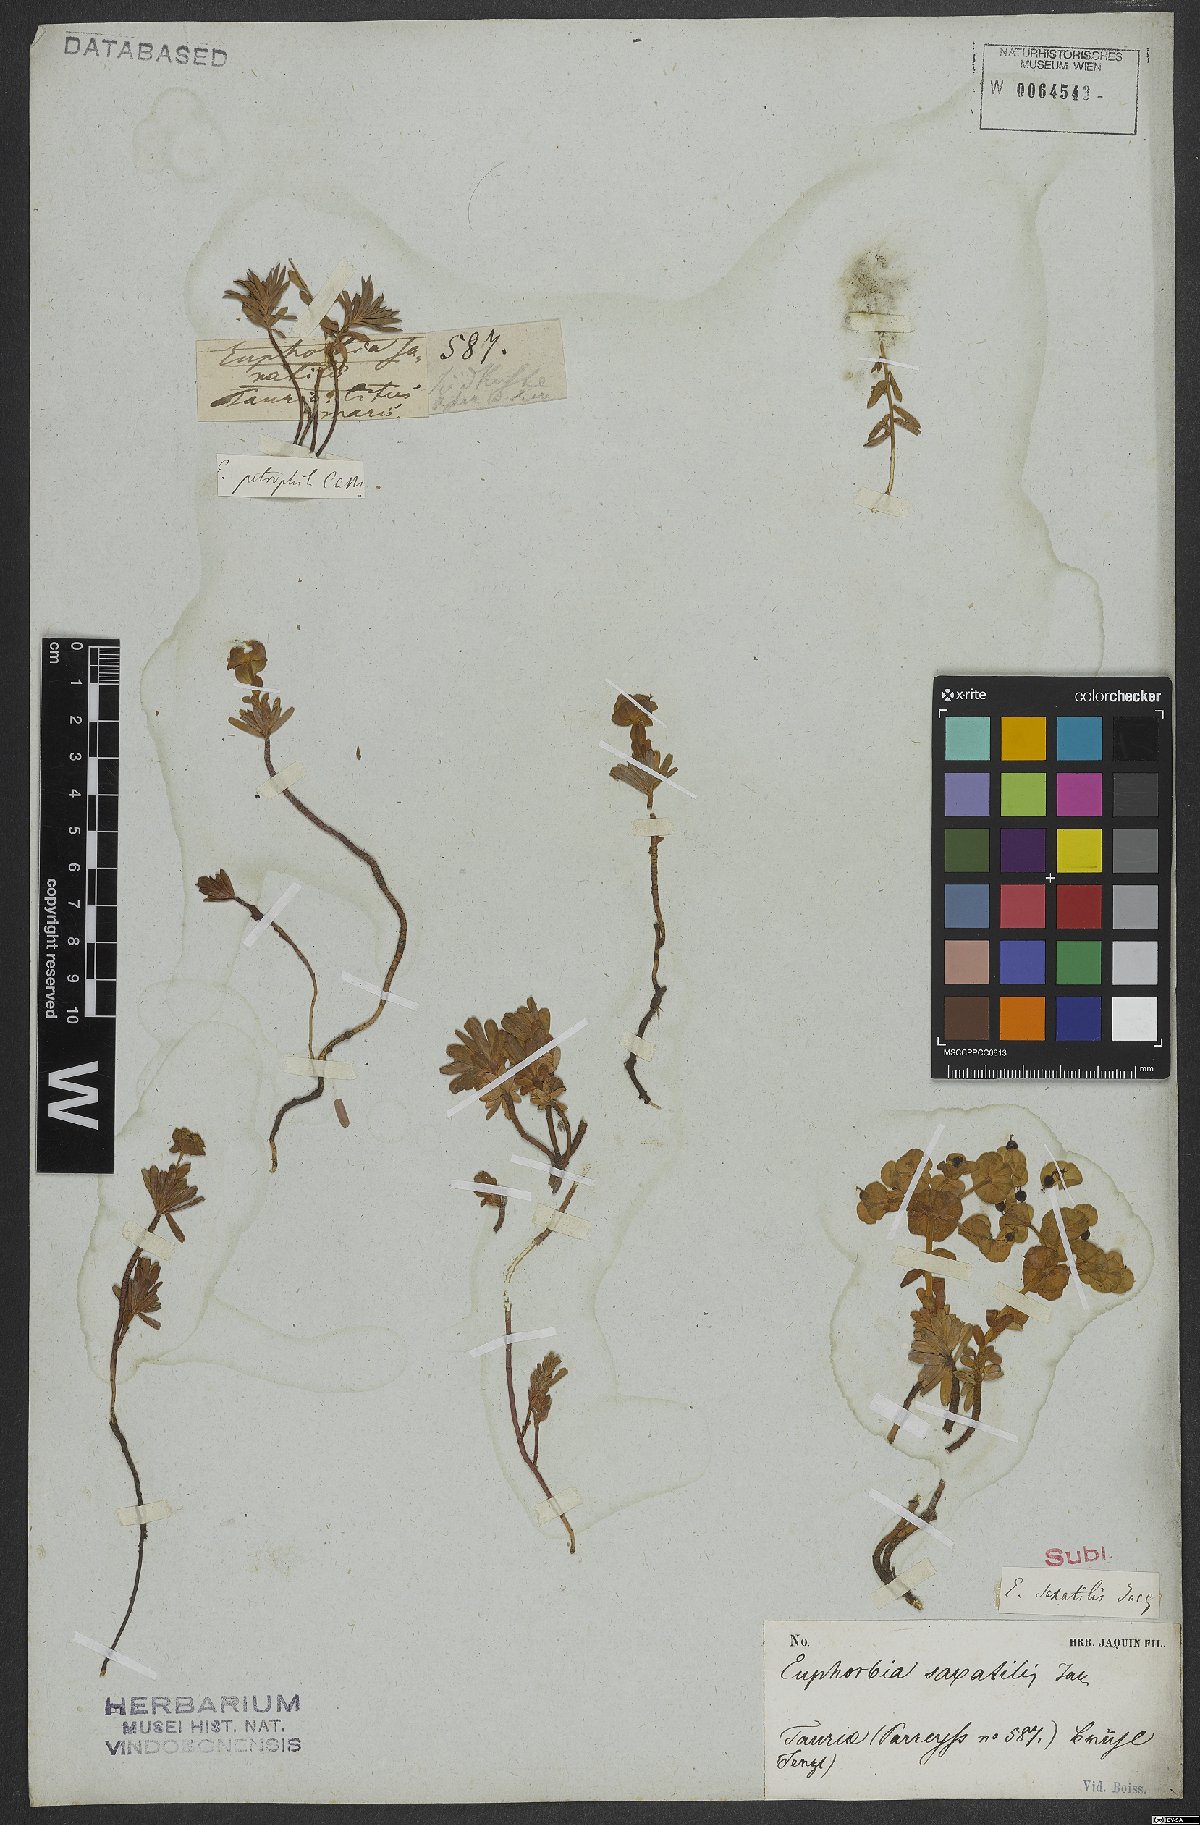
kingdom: Plantae
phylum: Tracheophyta
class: Magnoliopsida
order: Malpighiales
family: Euphorbiaceae
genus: Euphorbia
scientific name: Euphorbia saxatilis
